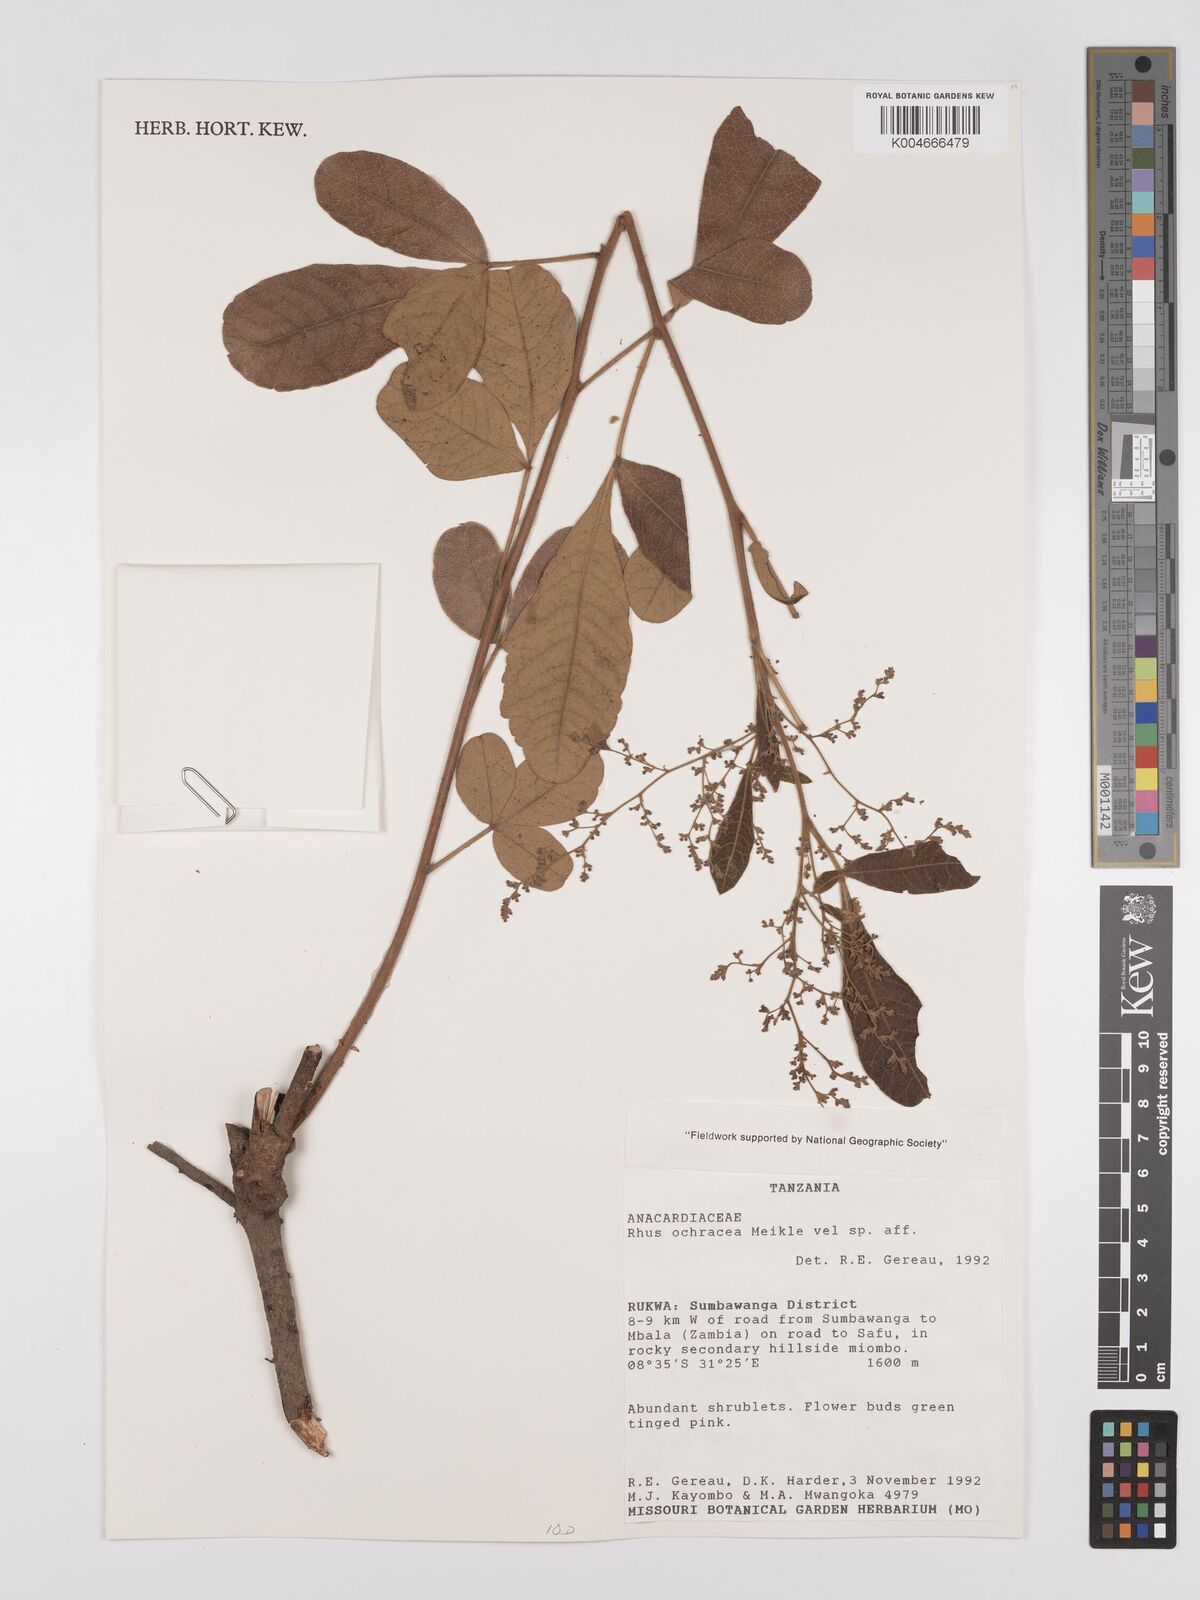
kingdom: Plantae
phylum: Tracheophyta
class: Magnoliopsida
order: Sapindales
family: Anacardiaceae
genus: Searsia
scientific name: Searsia ochracea
